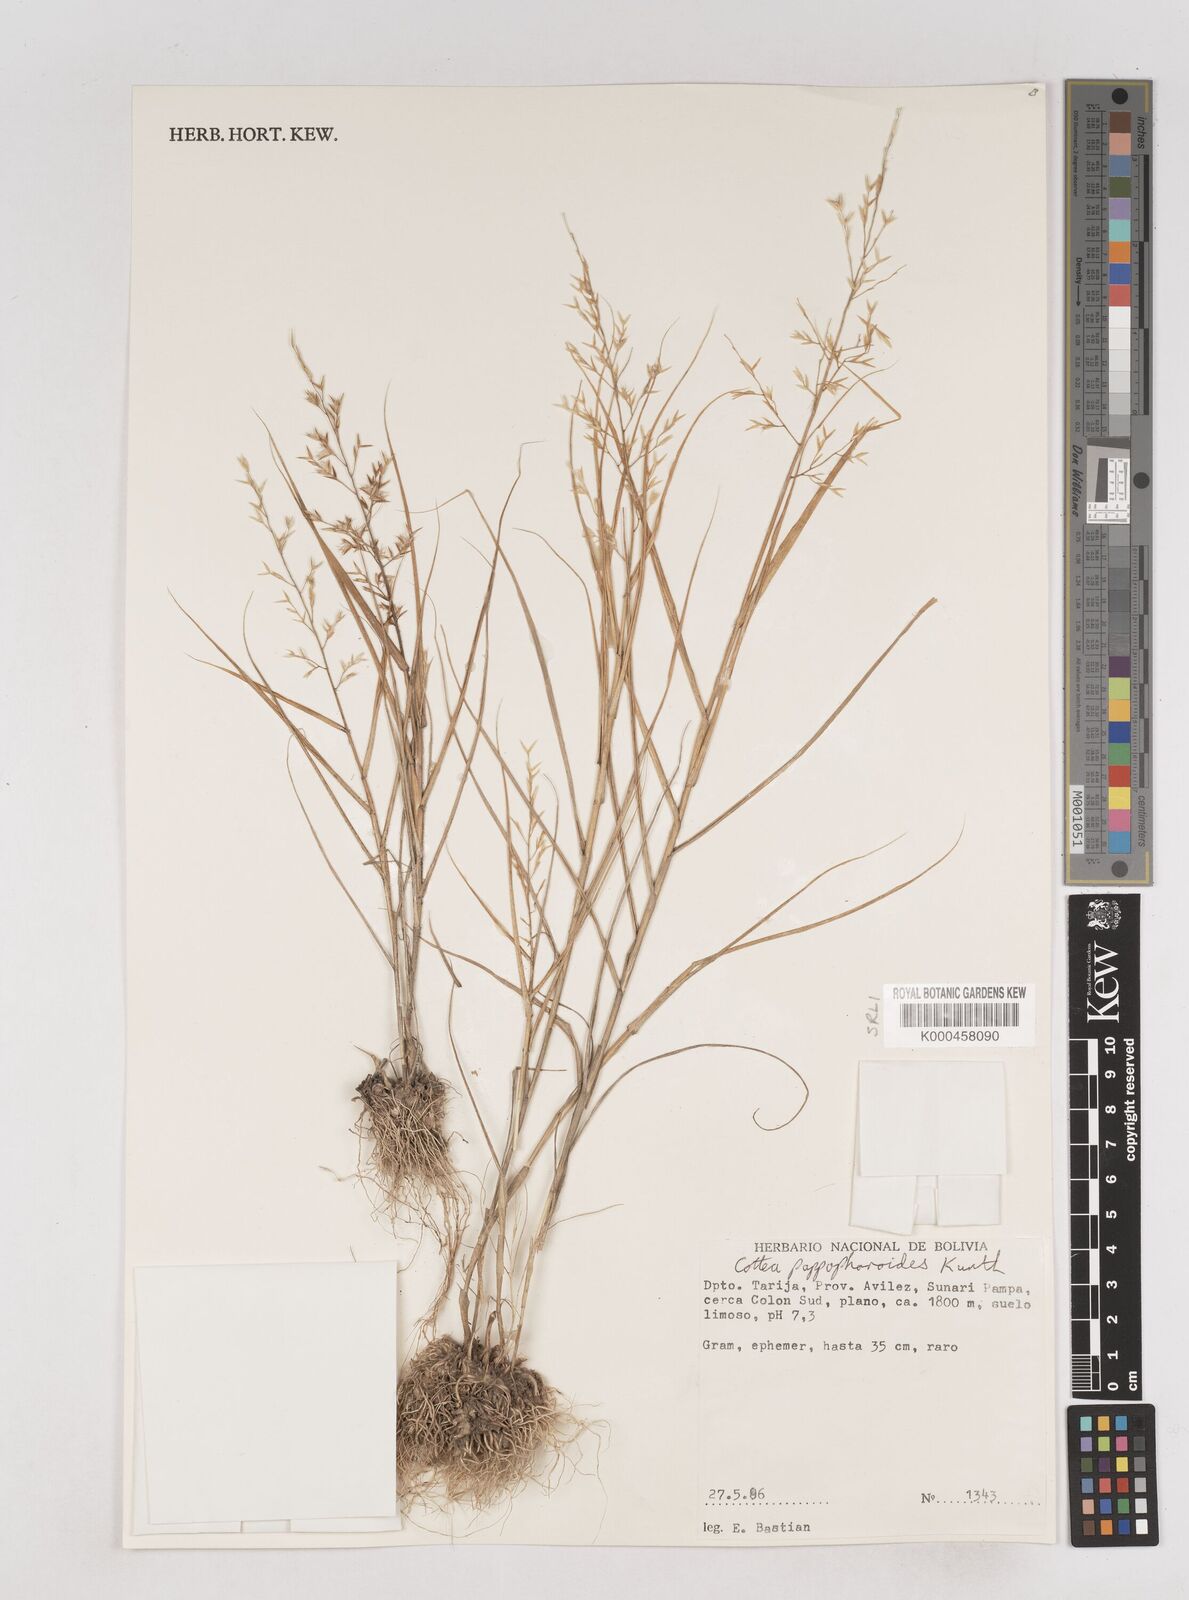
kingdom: Plantae
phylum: Tracheophyta
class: Liliopsida
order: Poales
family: Poaceae
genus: Cottea
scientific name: Cottea
